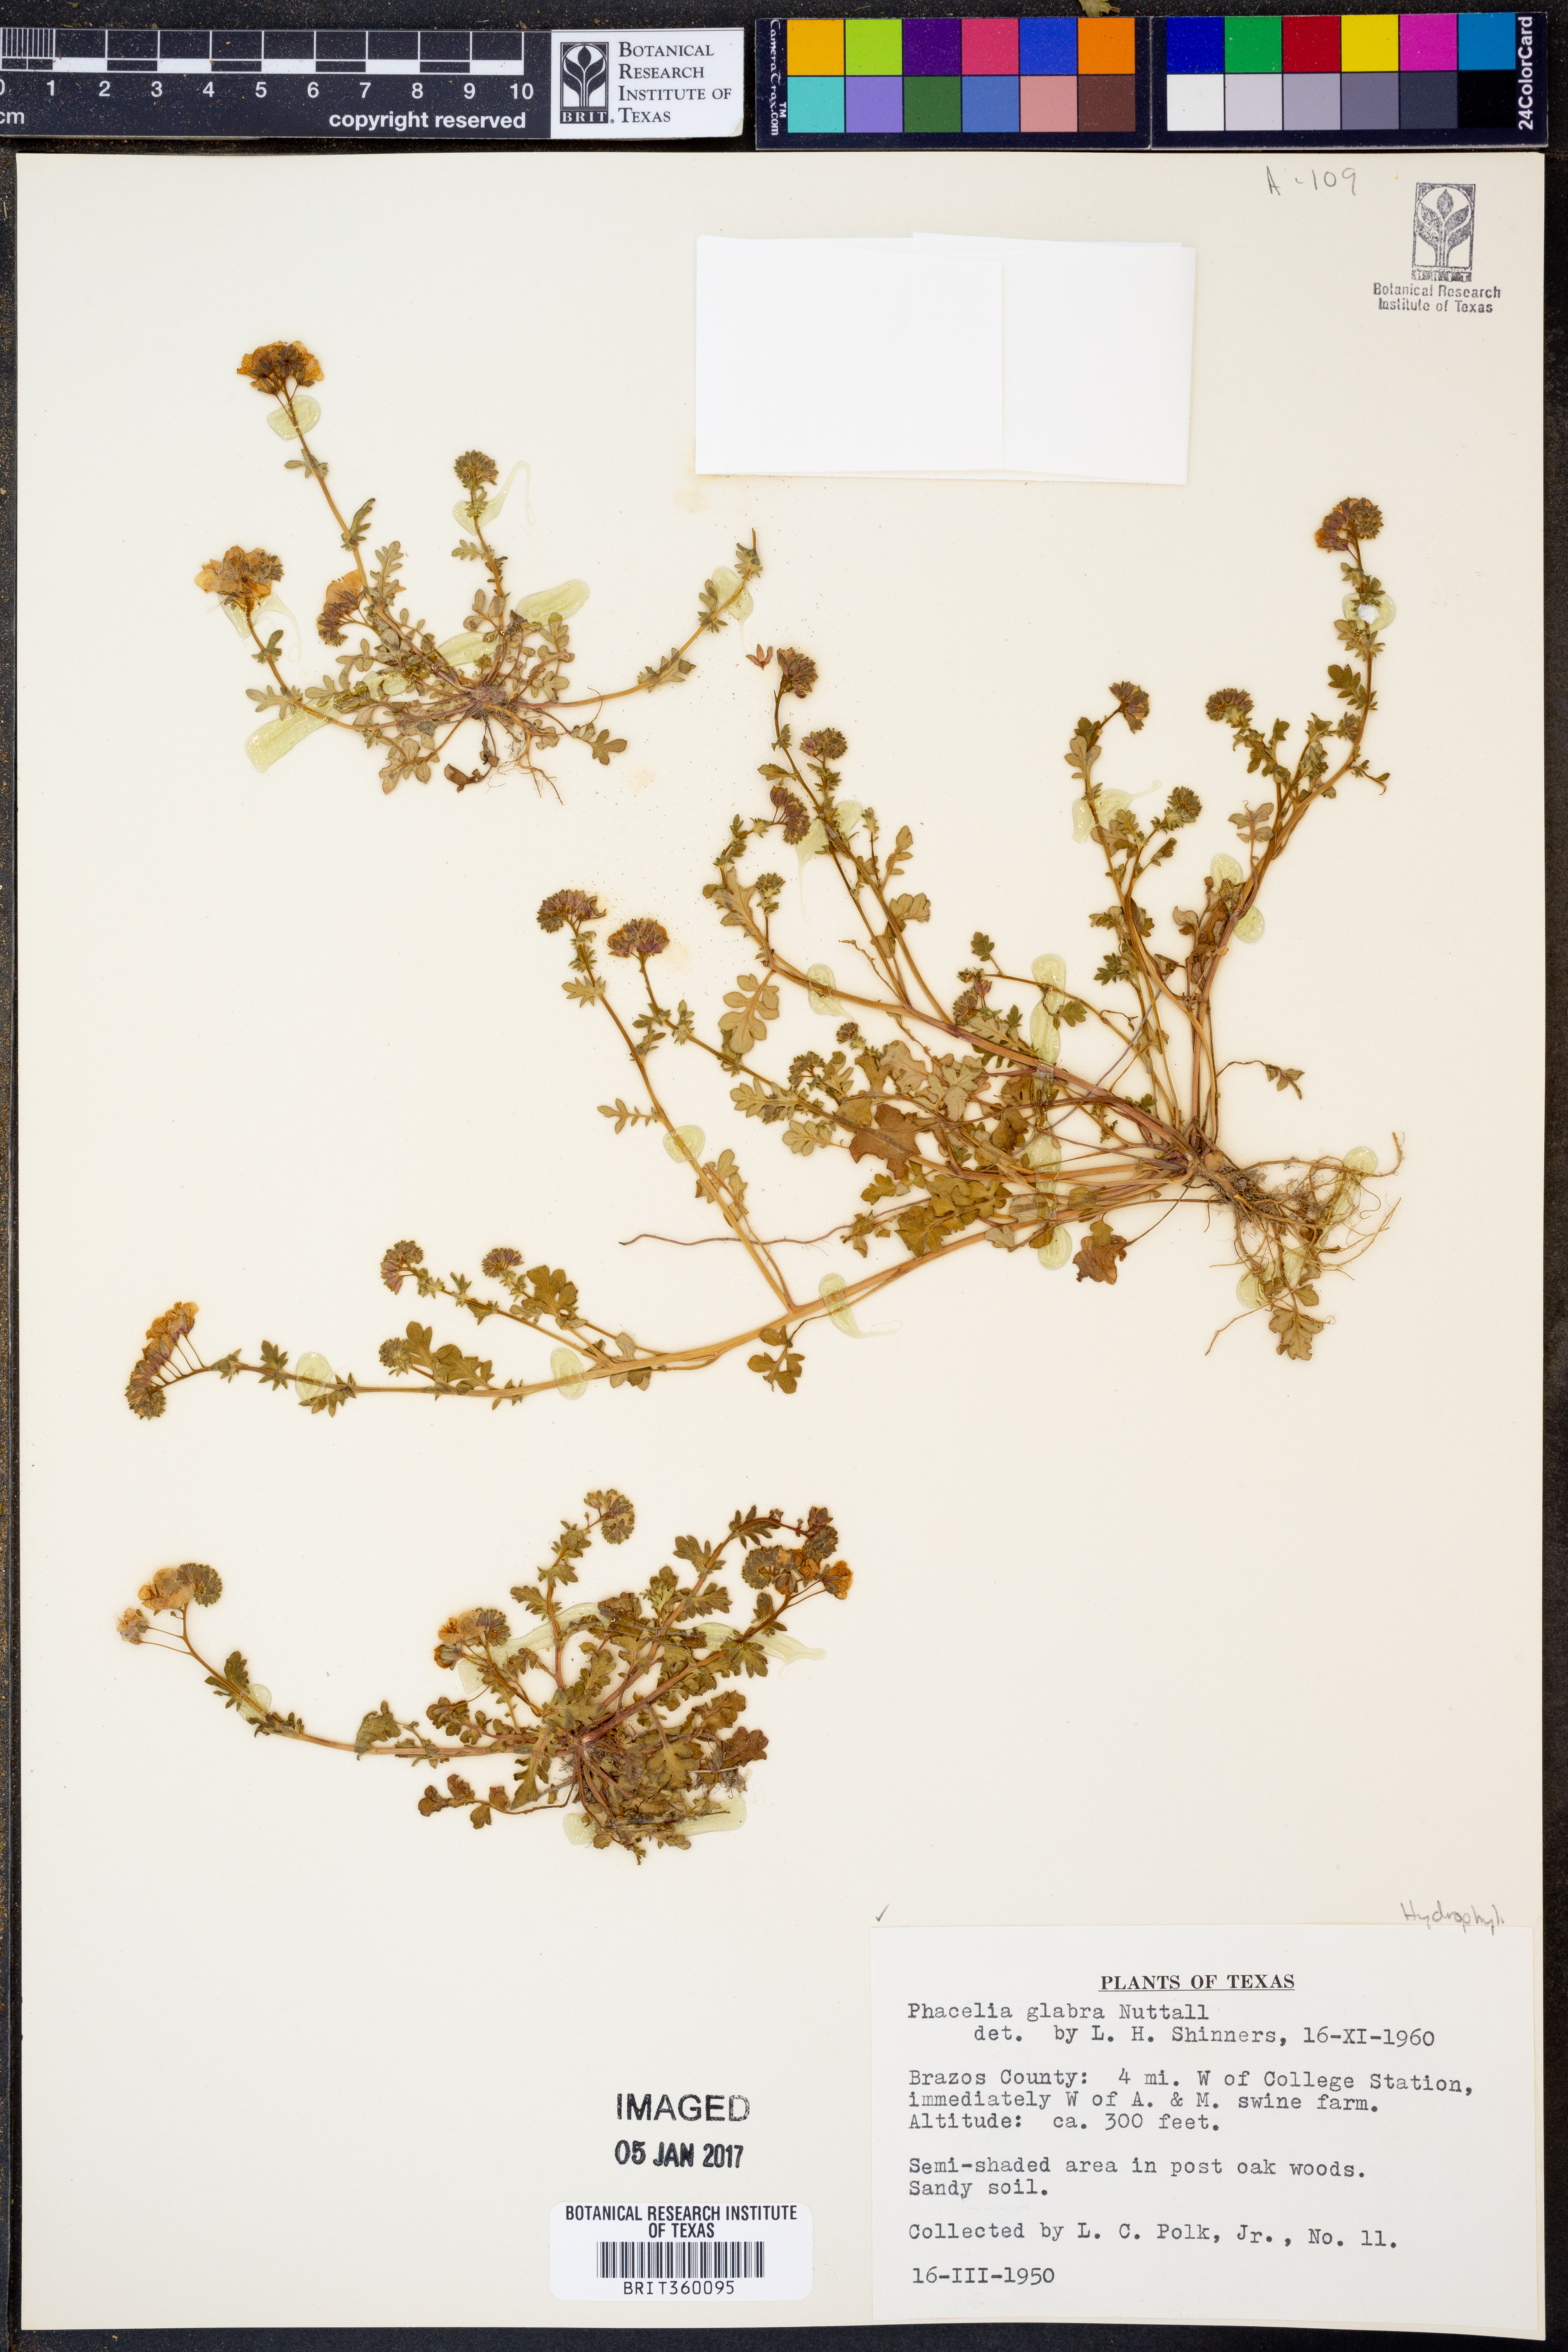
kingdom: Plantae
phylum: Tracheophyta
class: Magnoliopsida
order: Boraginales
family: Hydrophyllaceae
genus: Phacelia
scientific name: Phacelia glabra
